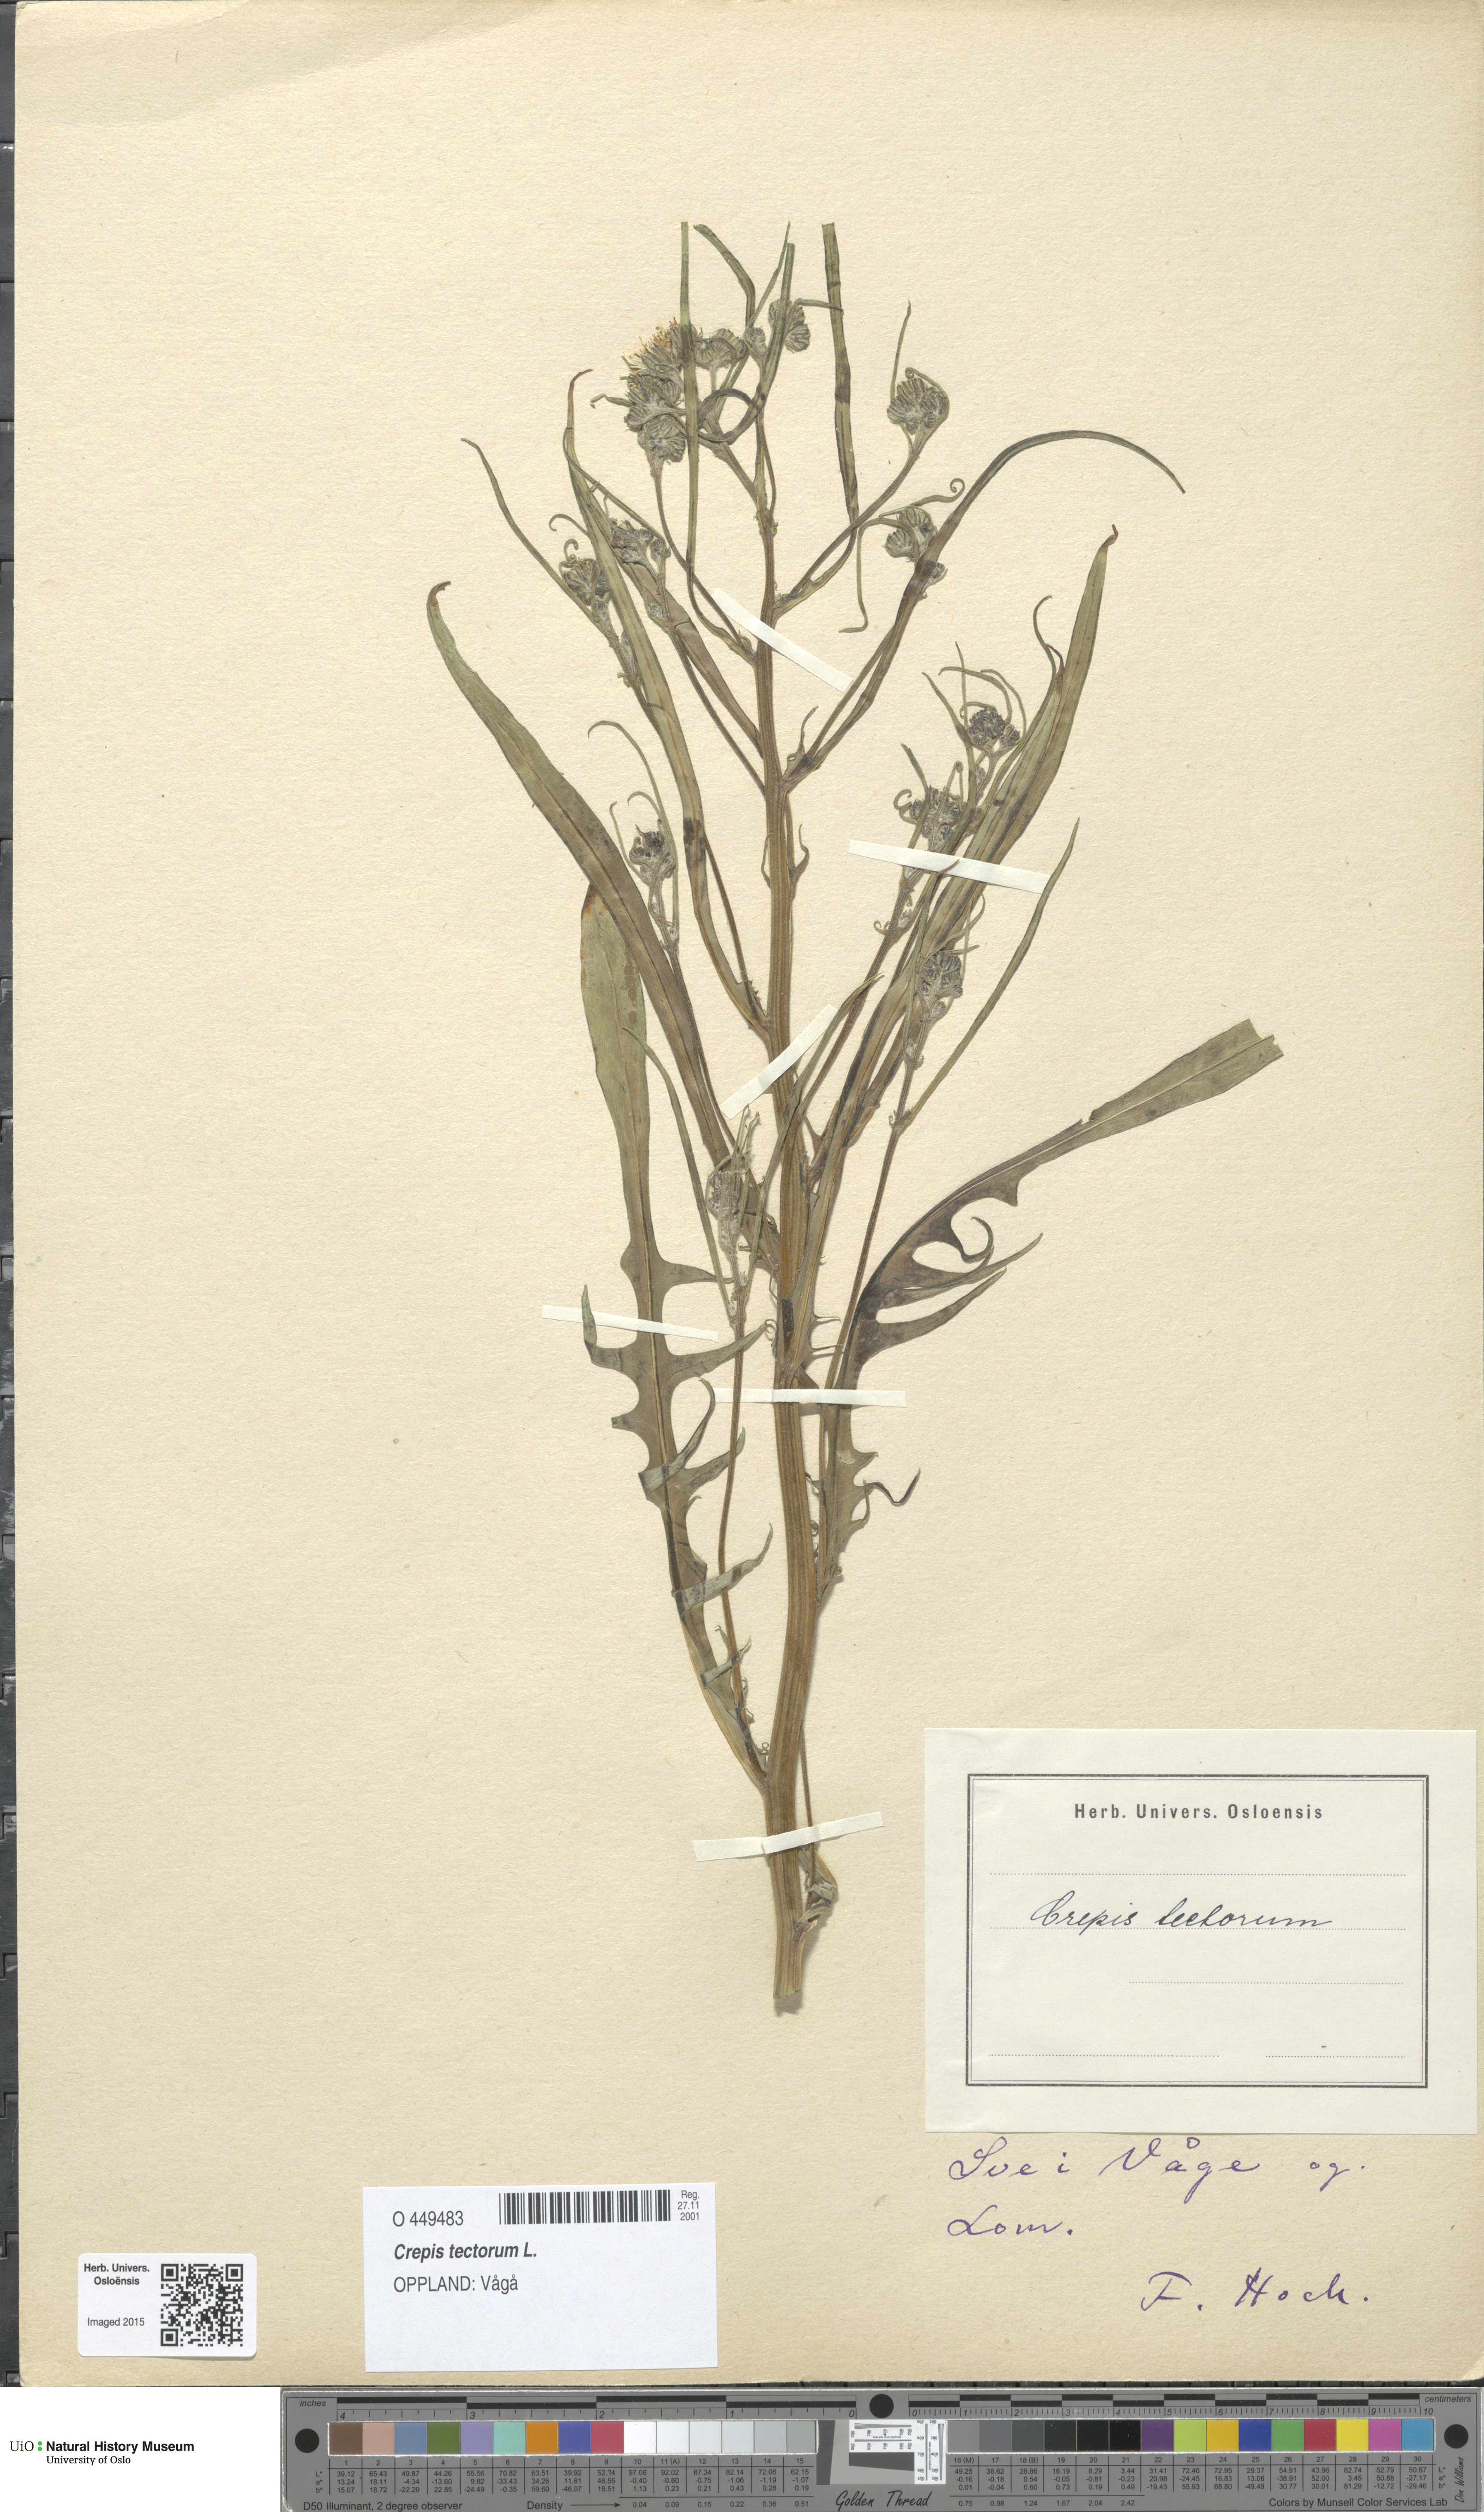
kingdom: Plantae
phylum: Tracheophyta
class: Magnoliopsida
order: Asterales
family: Asteraceae
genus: Crepis
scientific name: Crepis tectorum
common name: Narrow-leaved hawk's-beard
